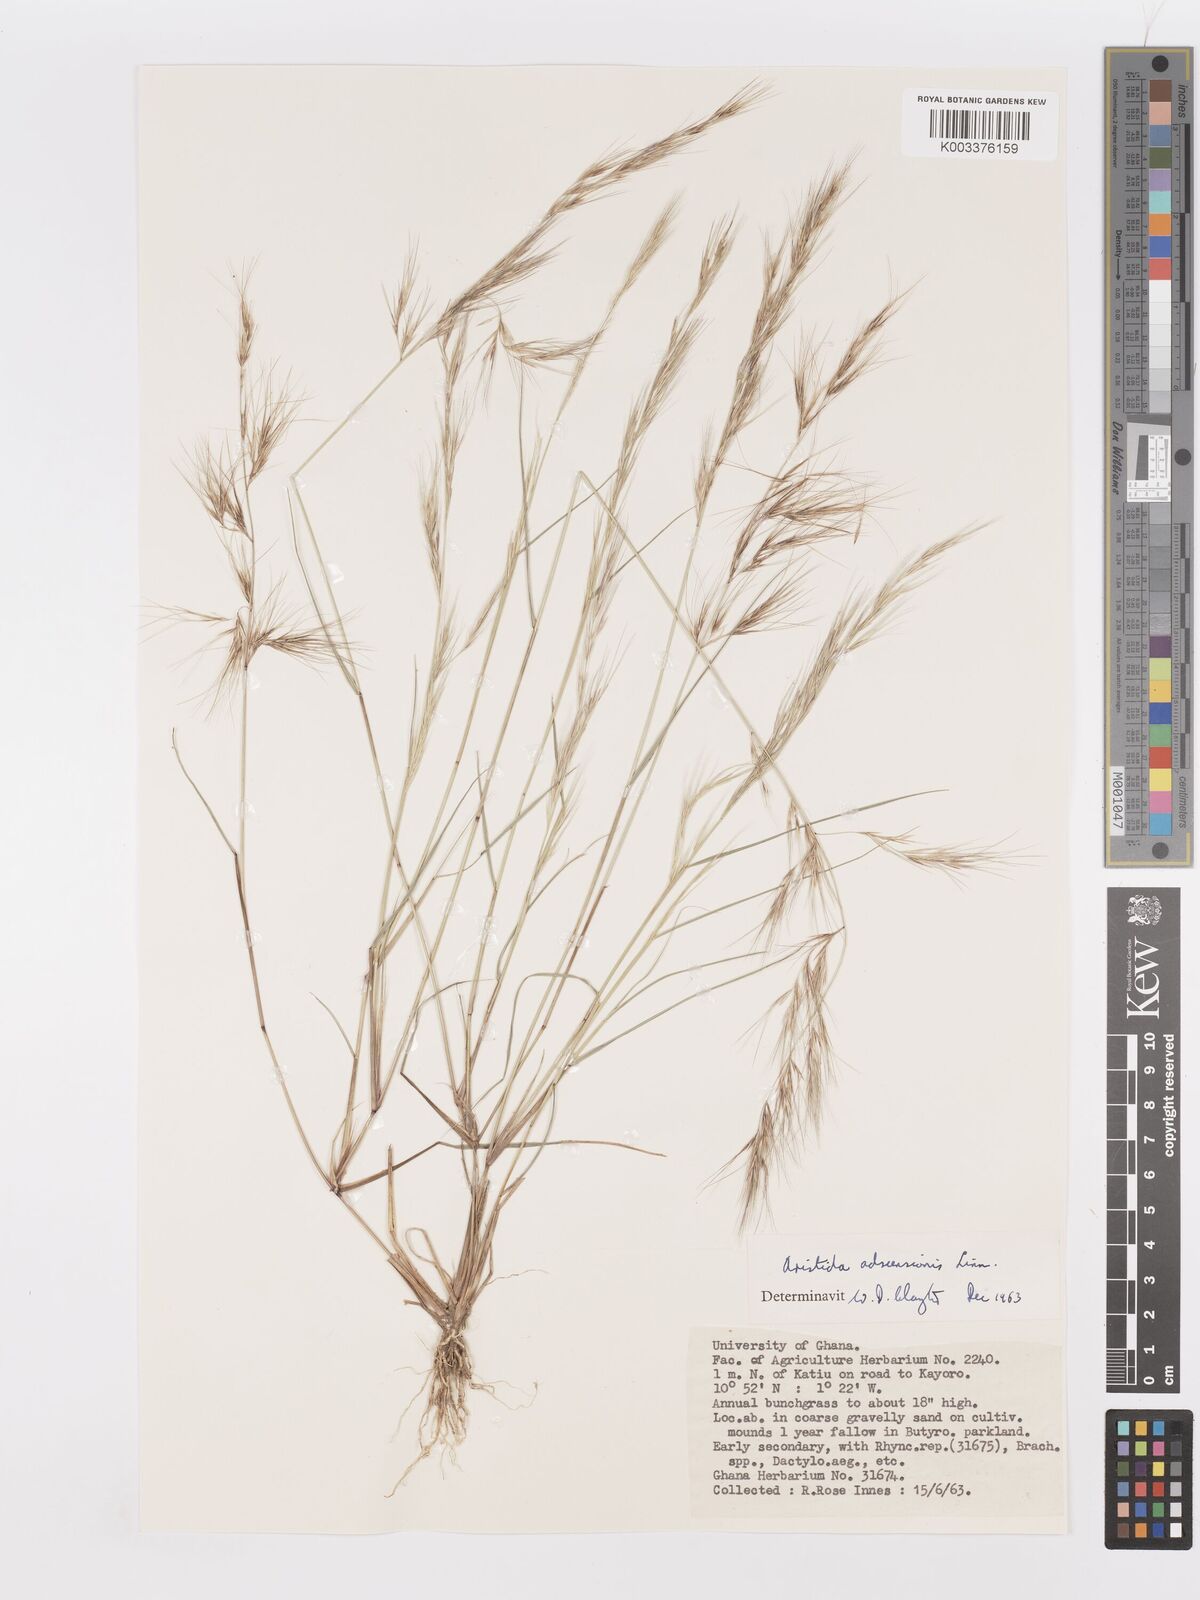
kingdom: Plantae
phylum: Tracheophyta
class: Liliopsida
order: Poales
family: Poaceae
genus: Aristida
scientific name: Aristida adscensionis
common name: Sixweeks threeawn
